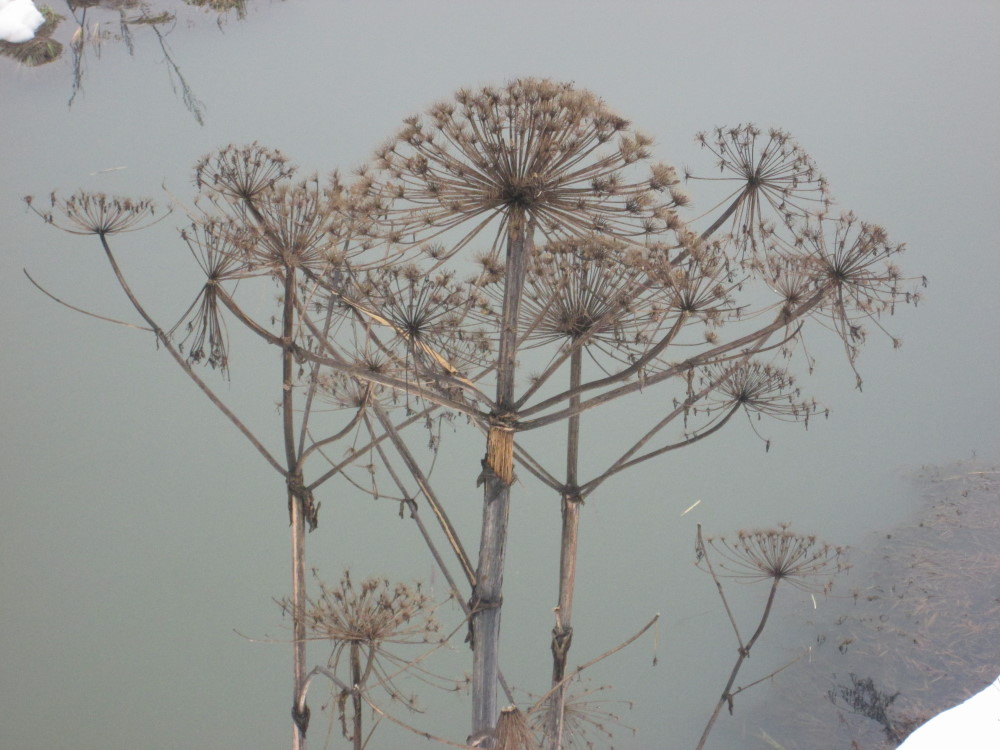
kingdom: Plantae
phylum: Tracheophyta
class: Magnoliopsida
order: Apiales
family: Apiaceae
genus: Heracleum
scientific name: Heracleum sosnowskyi
